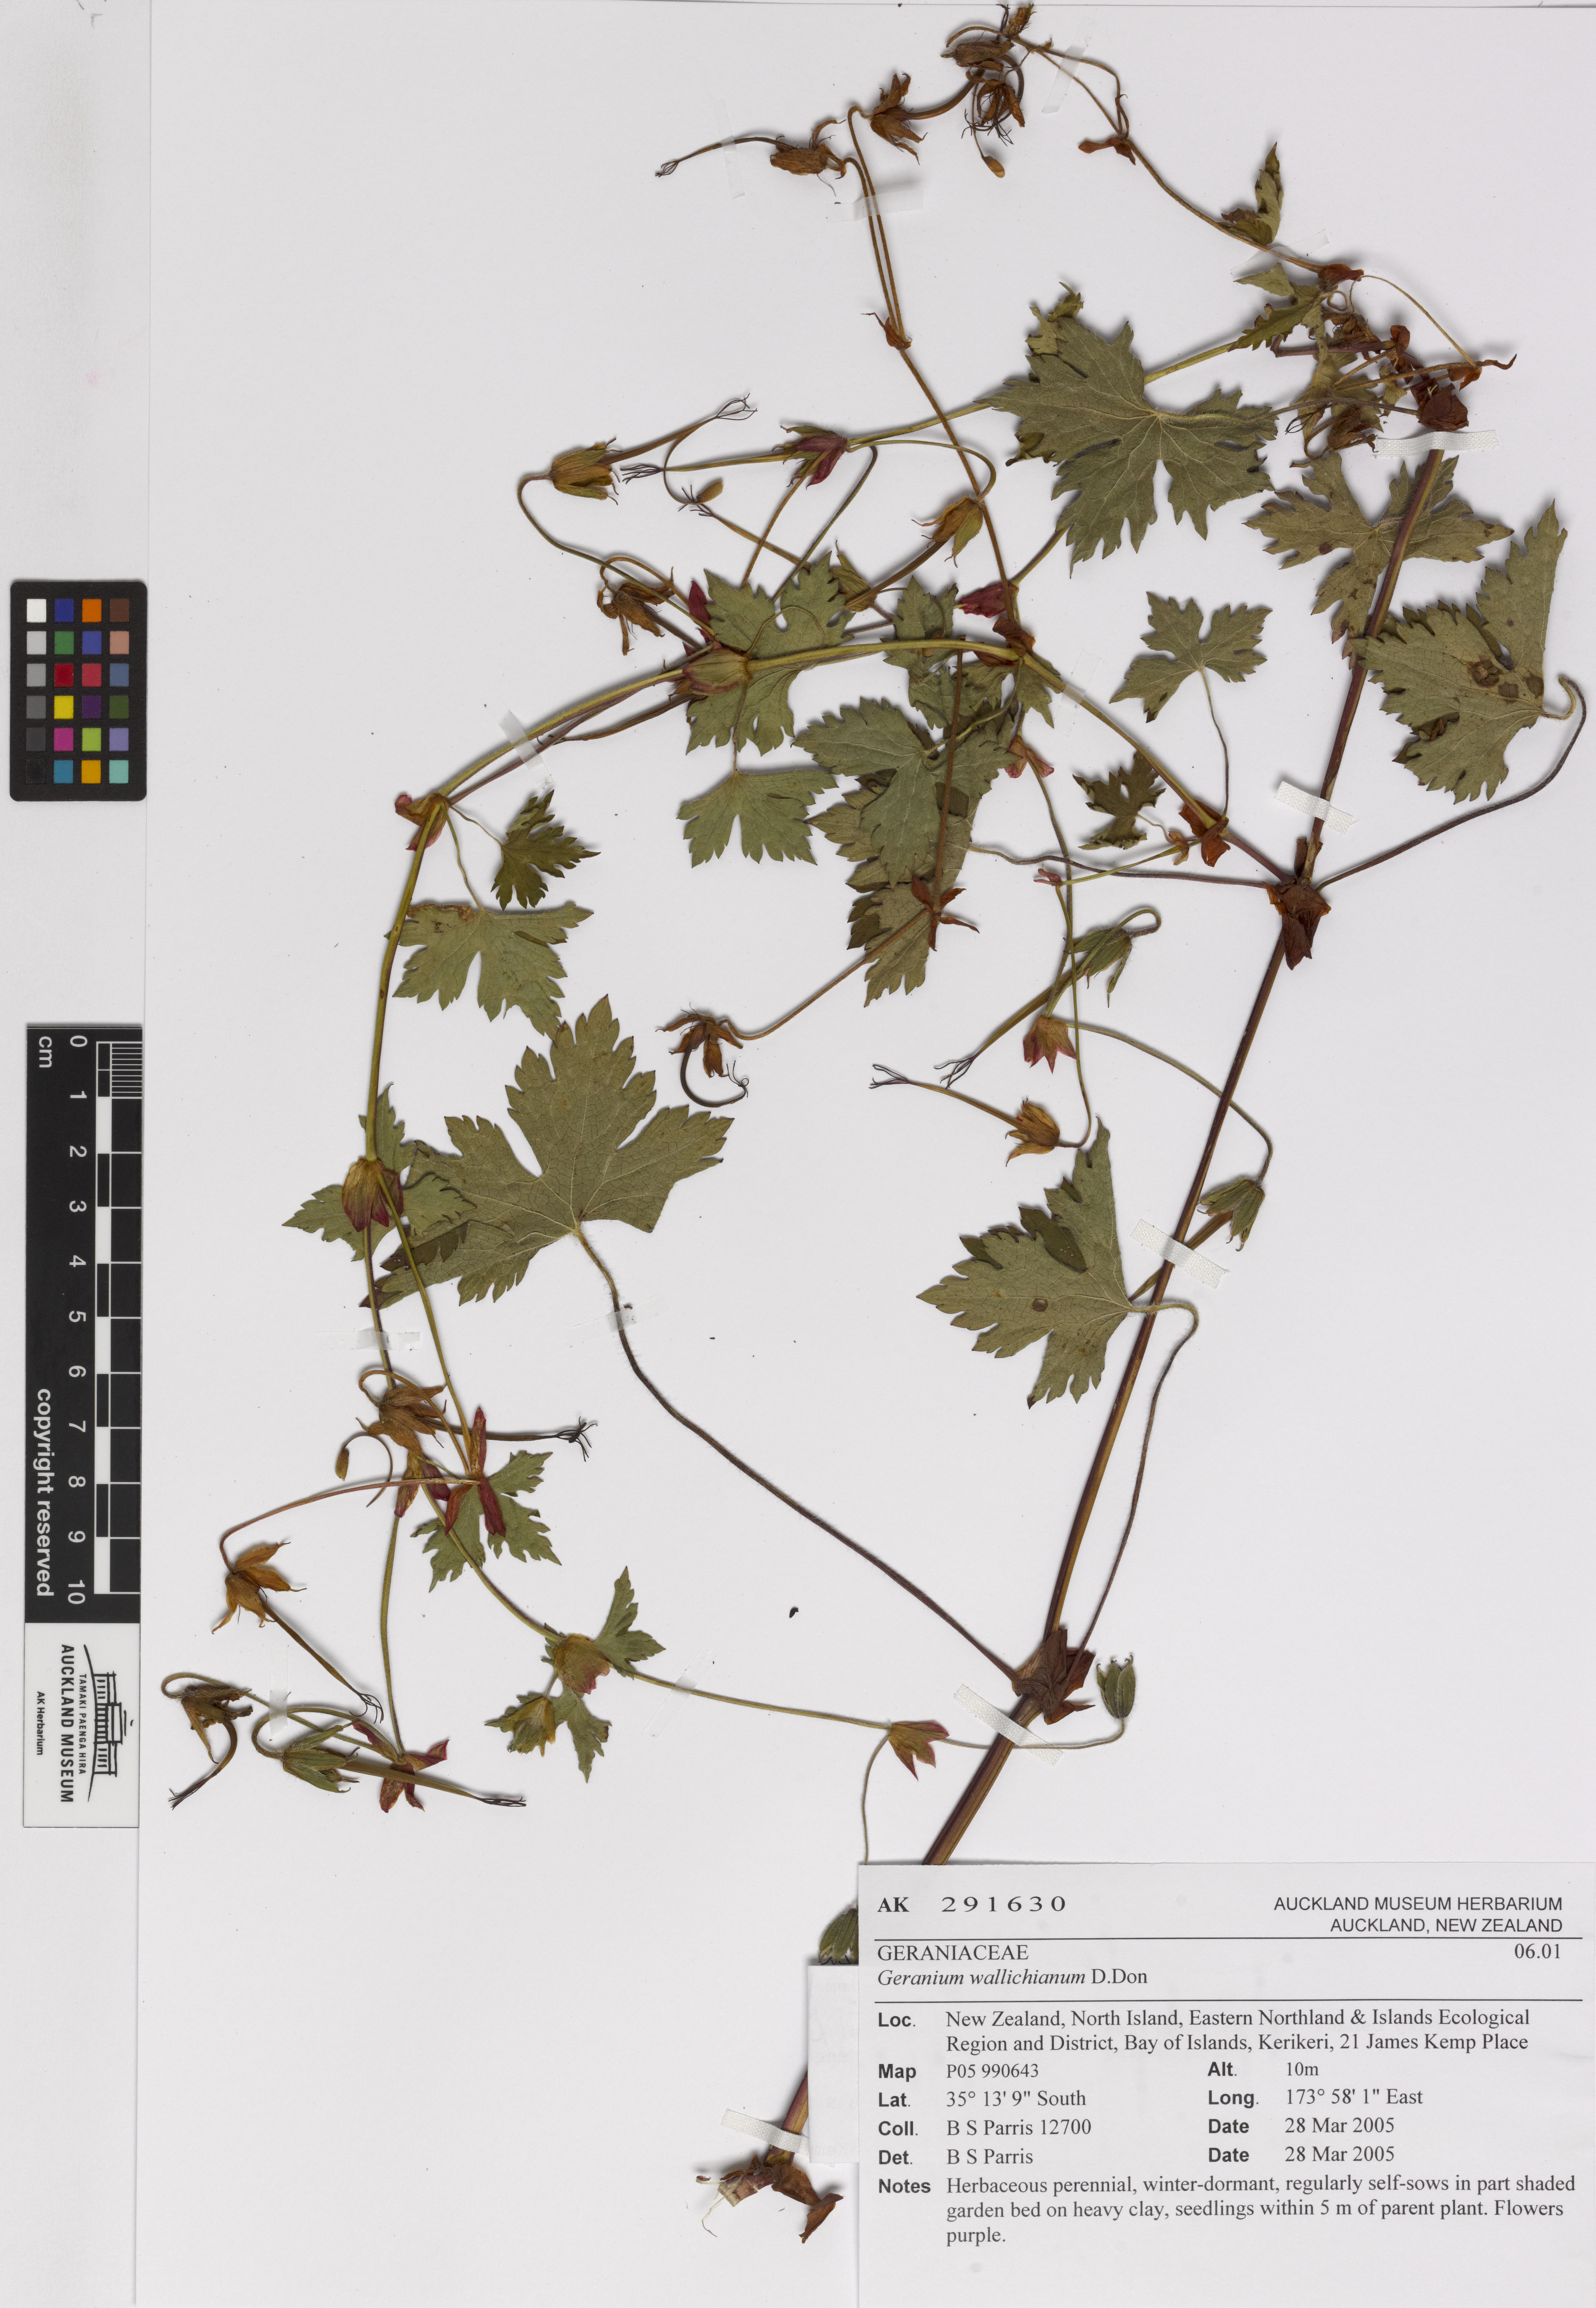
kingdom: Plantae
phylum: Tracheophyta
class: Magnoliopsida
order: Geraniales
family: Geraniaceae
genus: Geranium
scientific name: Geranium wallichianum
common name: Buxton's blue
